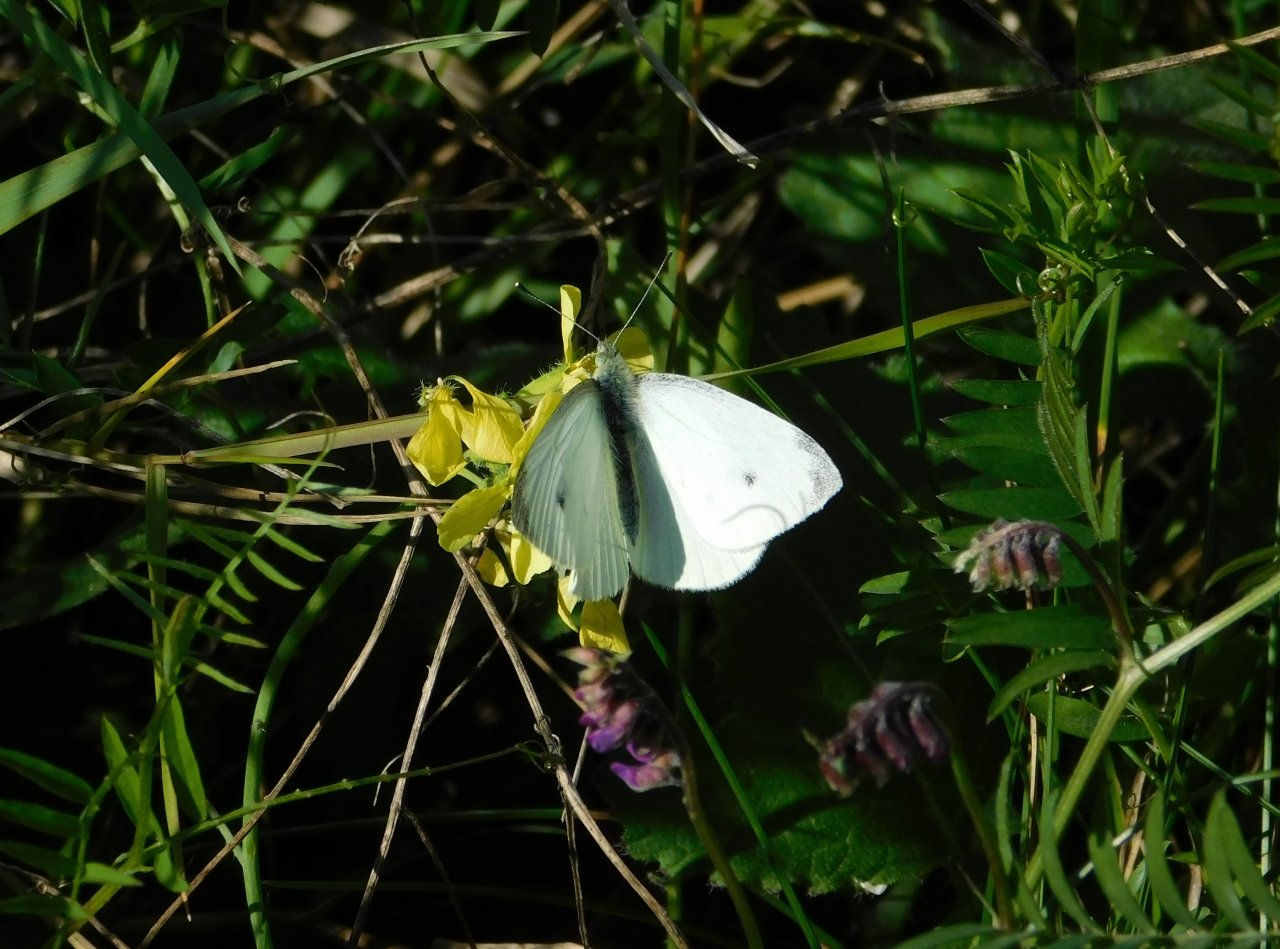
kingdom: Animalia
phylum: Arthropoda
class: Insecta
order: Lepidoptera
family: Pieridae
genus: Pieris
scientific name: Pieris rapae
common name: Cabbage White
